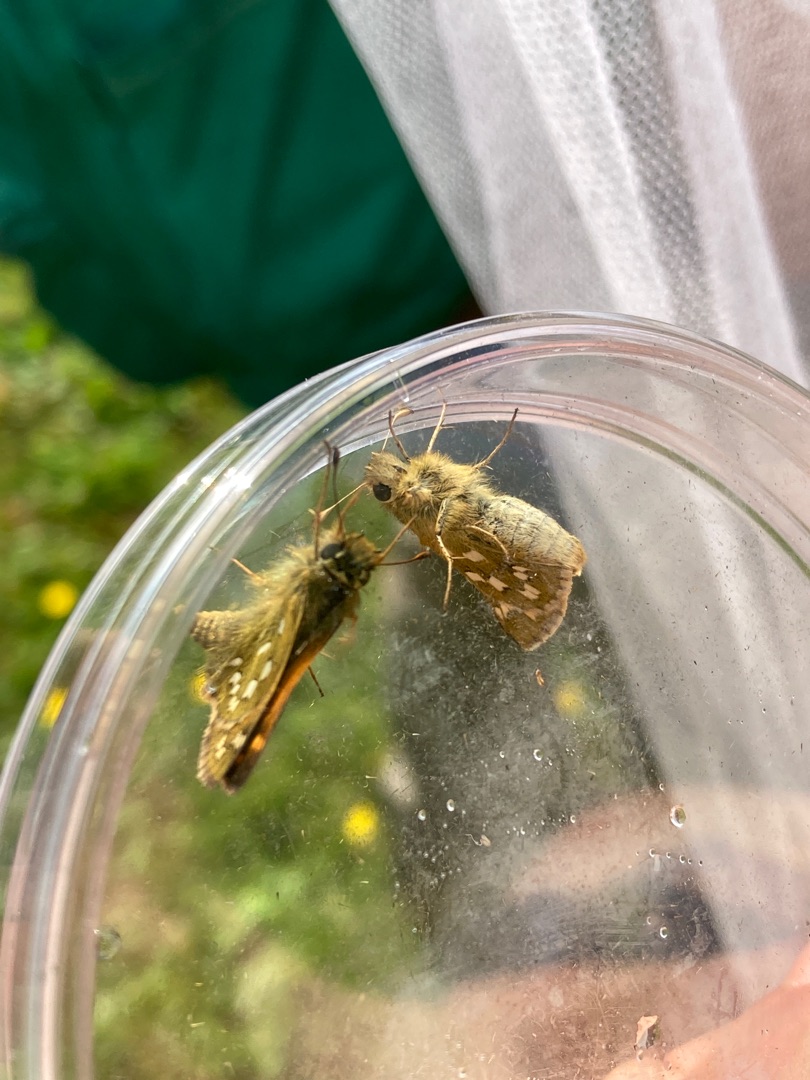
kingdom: Animalia
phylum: Arthropoda
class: Insecta
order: Lepidoptera
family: Hesperiidae
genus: Hesperia
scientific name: Hesperia comma
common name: Kommabredpande
